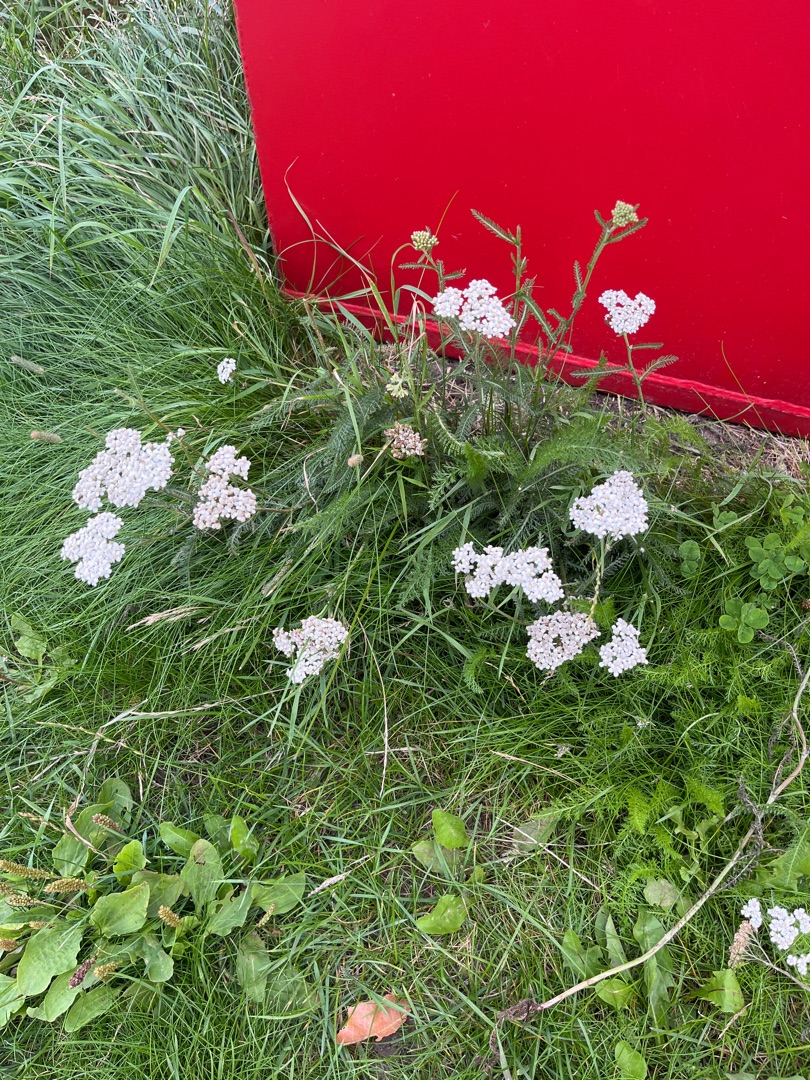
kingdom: Plantae
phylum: Tracheophyta
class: Magnoliopsida
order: Asterales
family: Asteraceae
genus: Achillea
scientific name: Achillea millefolium
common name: Almindelig røllike
